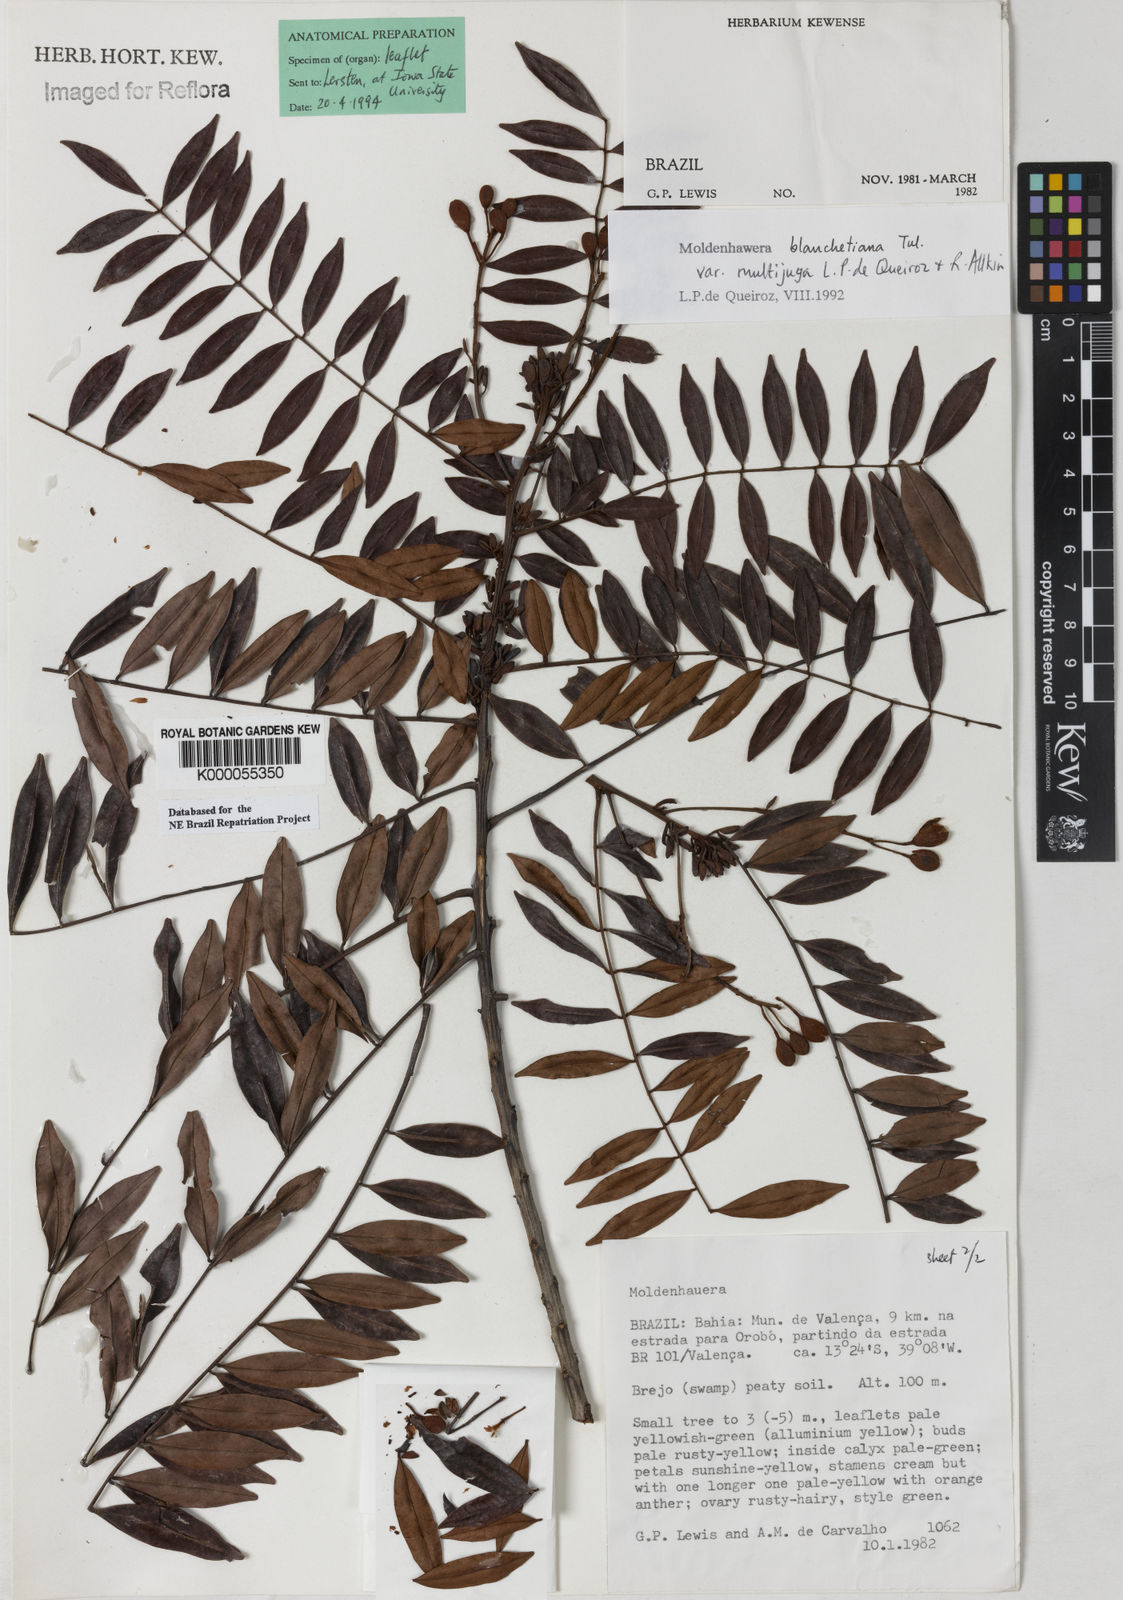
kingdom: Plantae
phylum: Tracheophyta
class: Magnoliopsida
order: Fabales
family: Fabaceae
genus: Moldenhawera
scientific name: Moldenhawera blanchetiana
